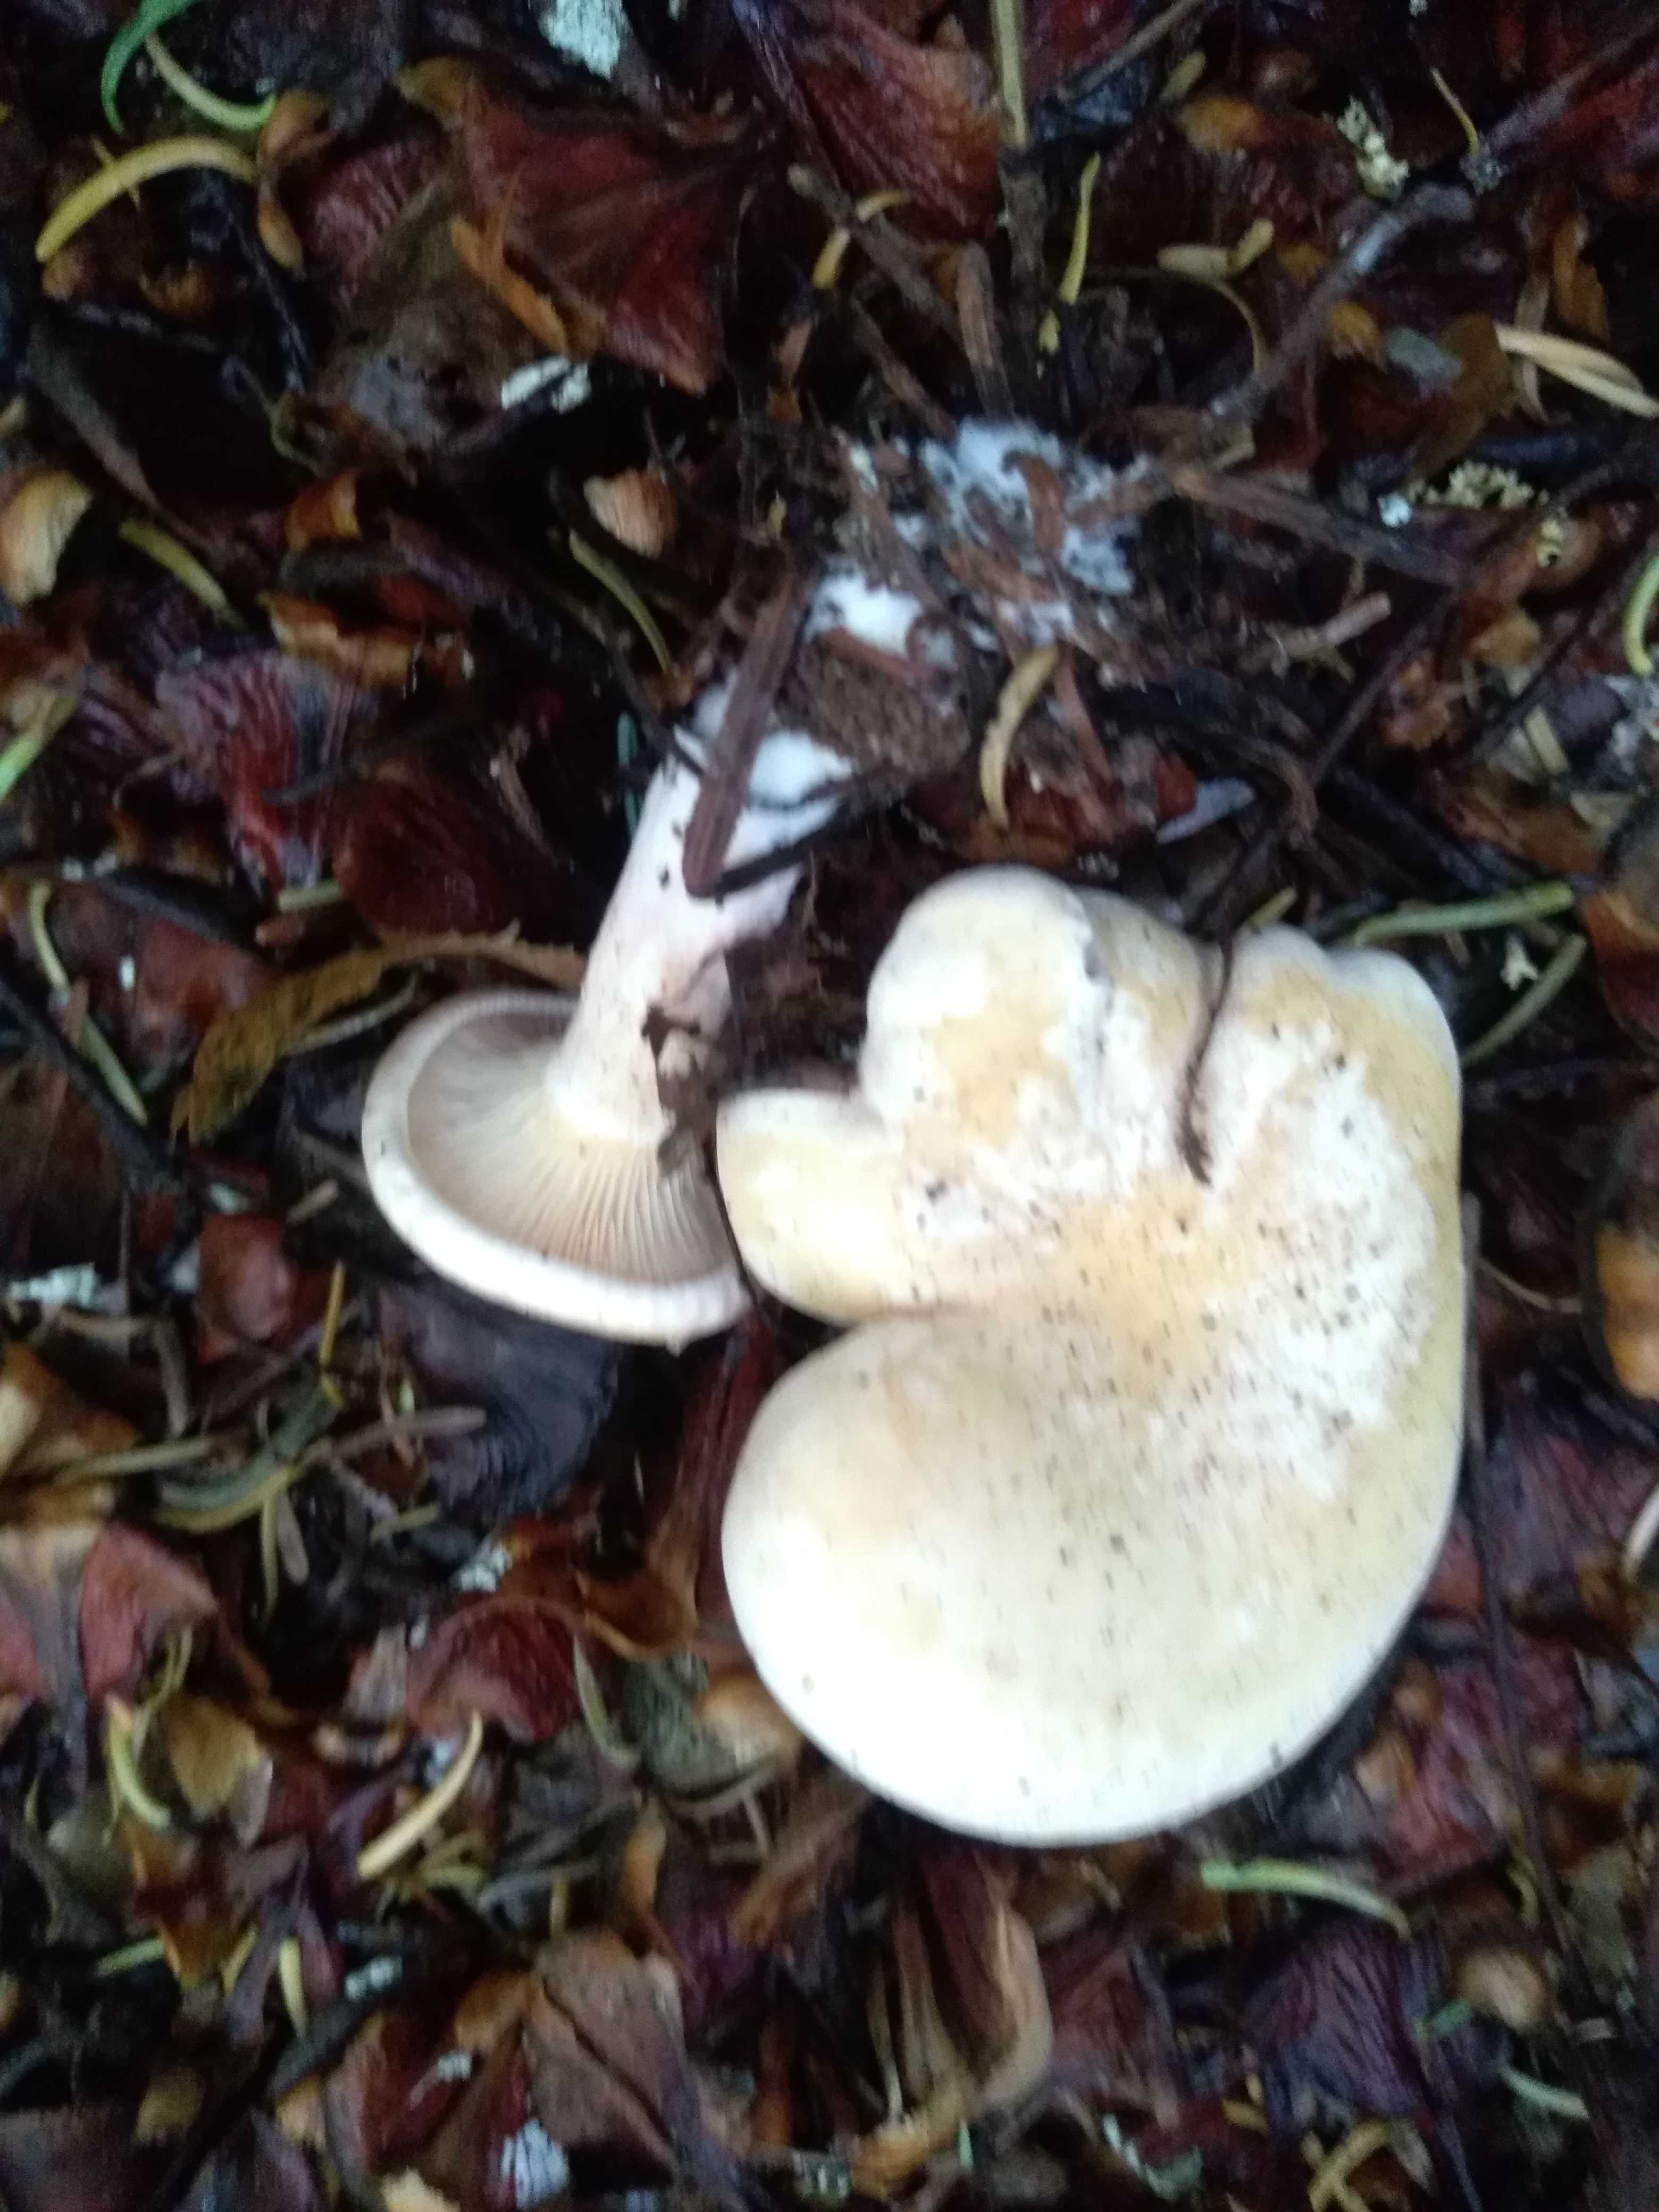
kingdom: Fungi
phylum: Basidiomycota
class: Agaricomycetes
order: Agaricales
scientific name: Agaricales
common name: champignonordenen
